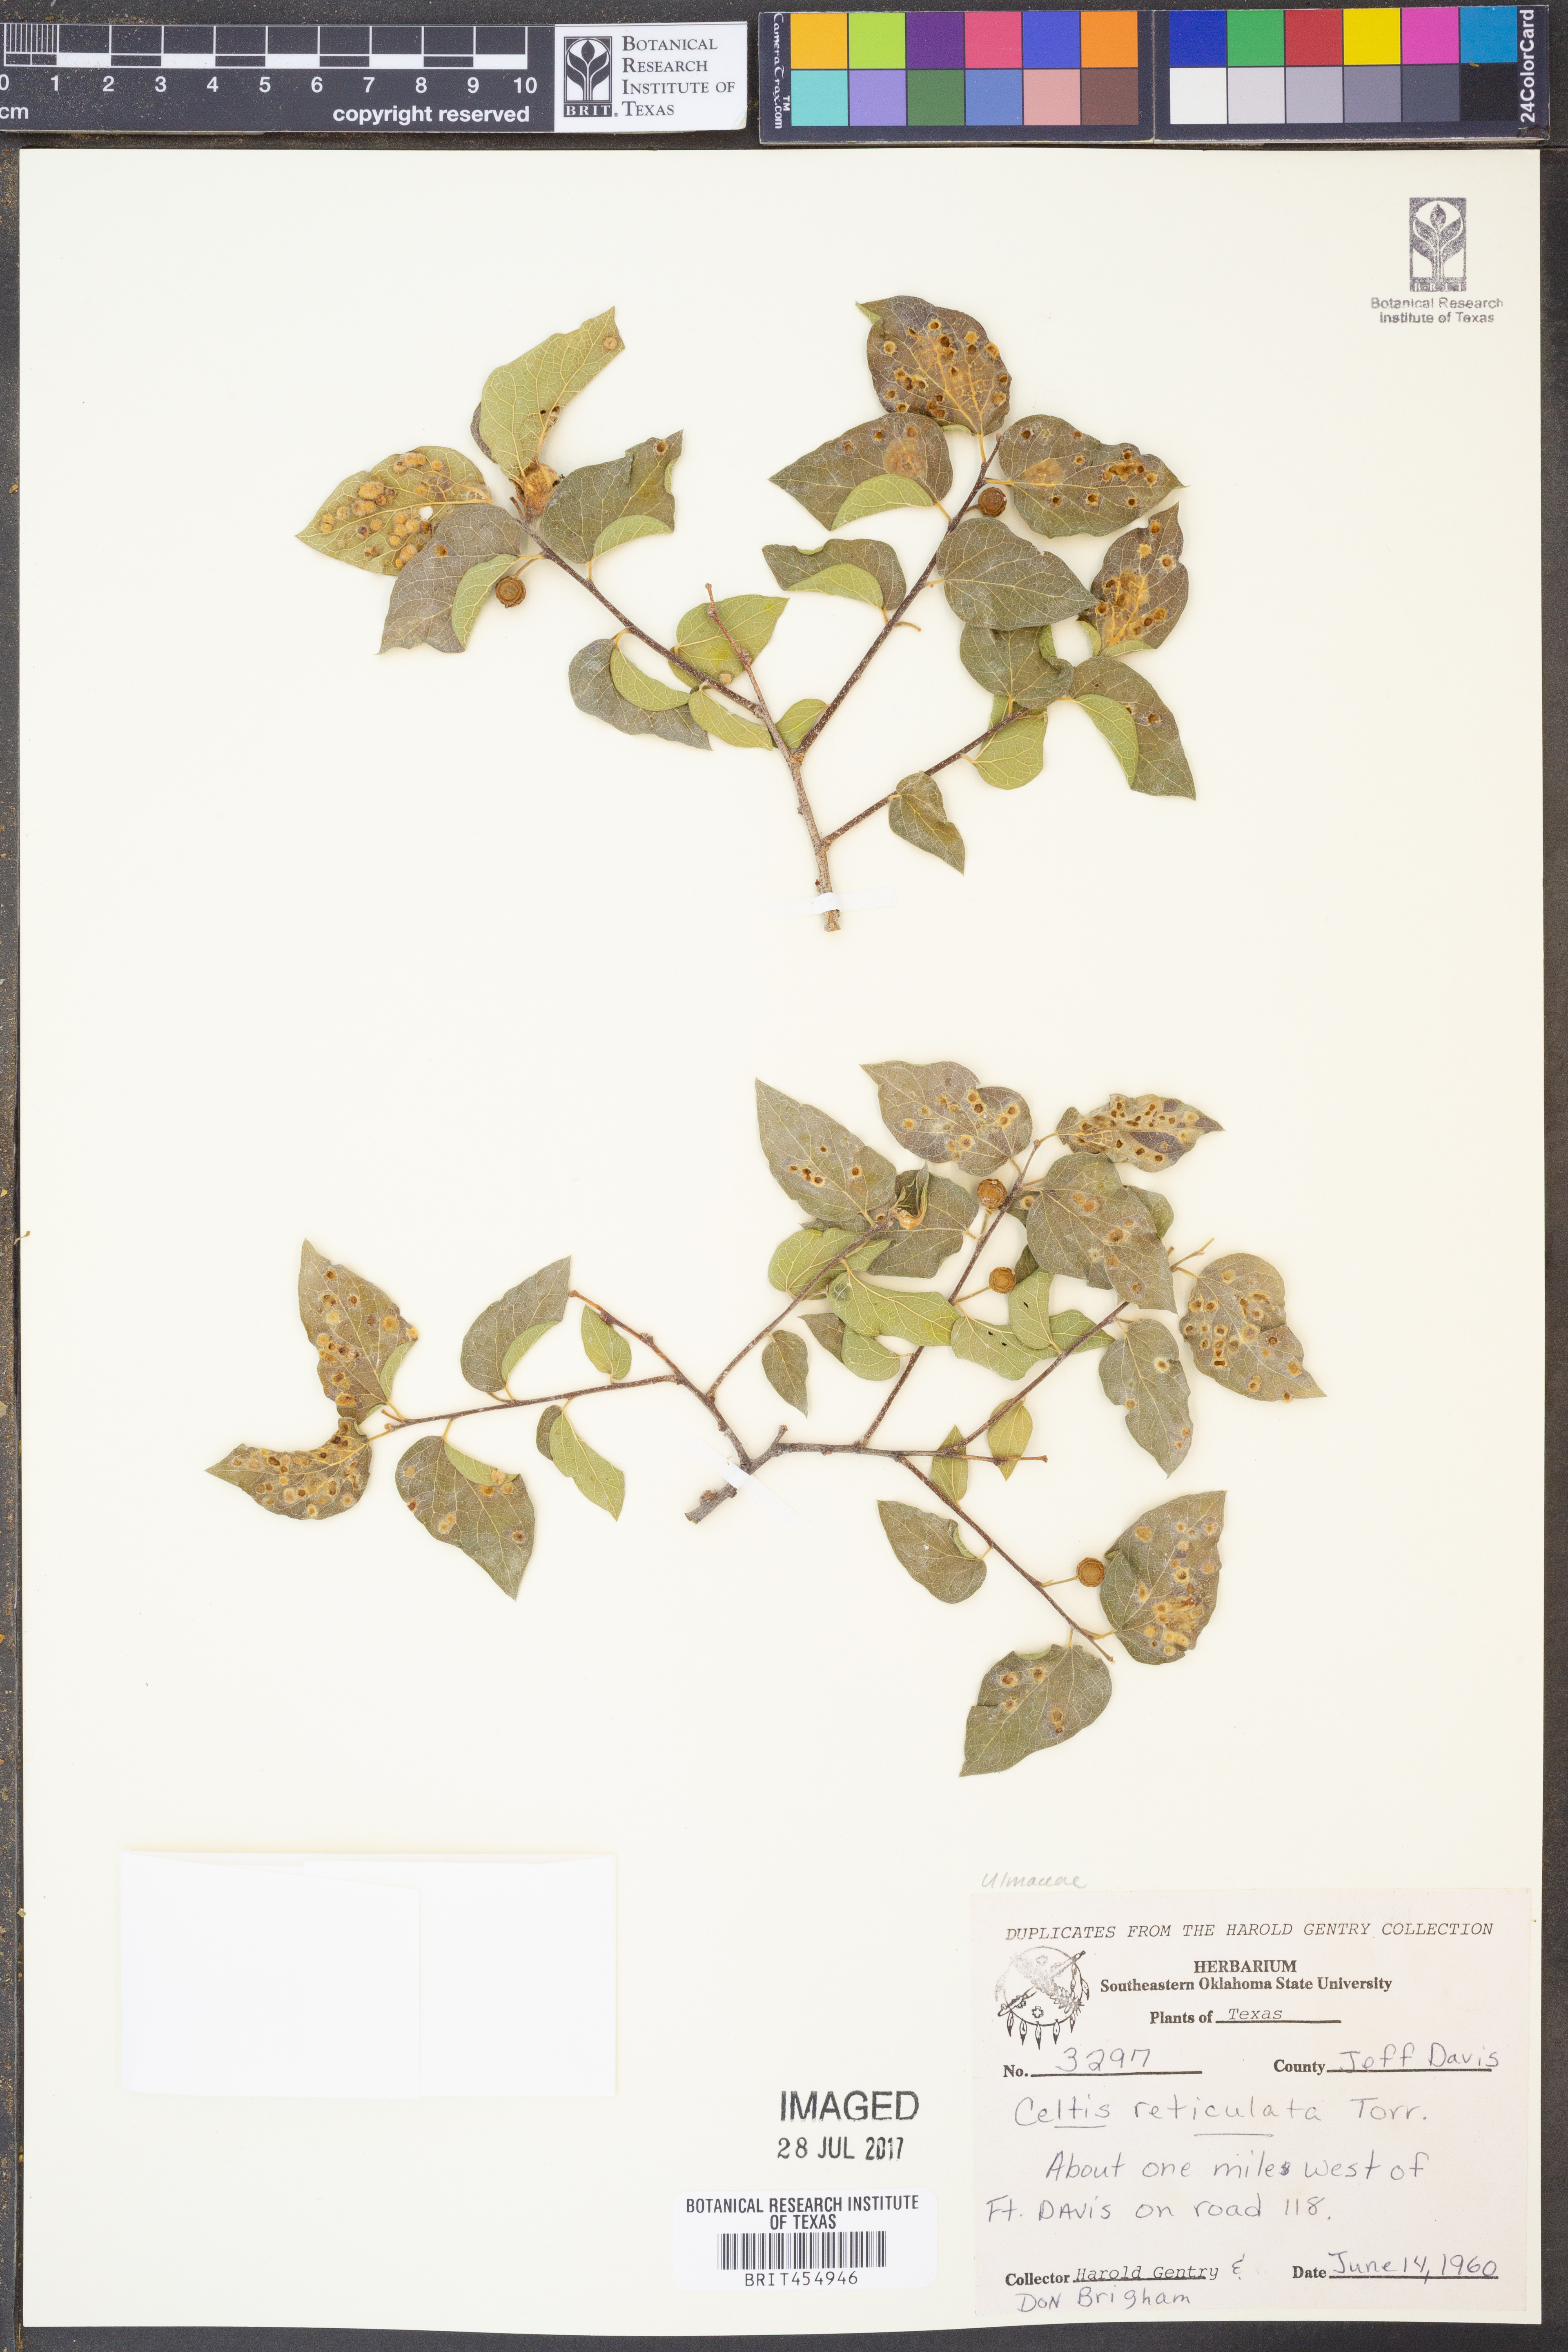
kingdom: Plantae
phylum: Tracheophyta
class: Magnoliopsida
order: Rosales
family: Cannabaceae
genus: Celtis
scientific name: Celtis reticulata
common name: Netleaf hackberry
